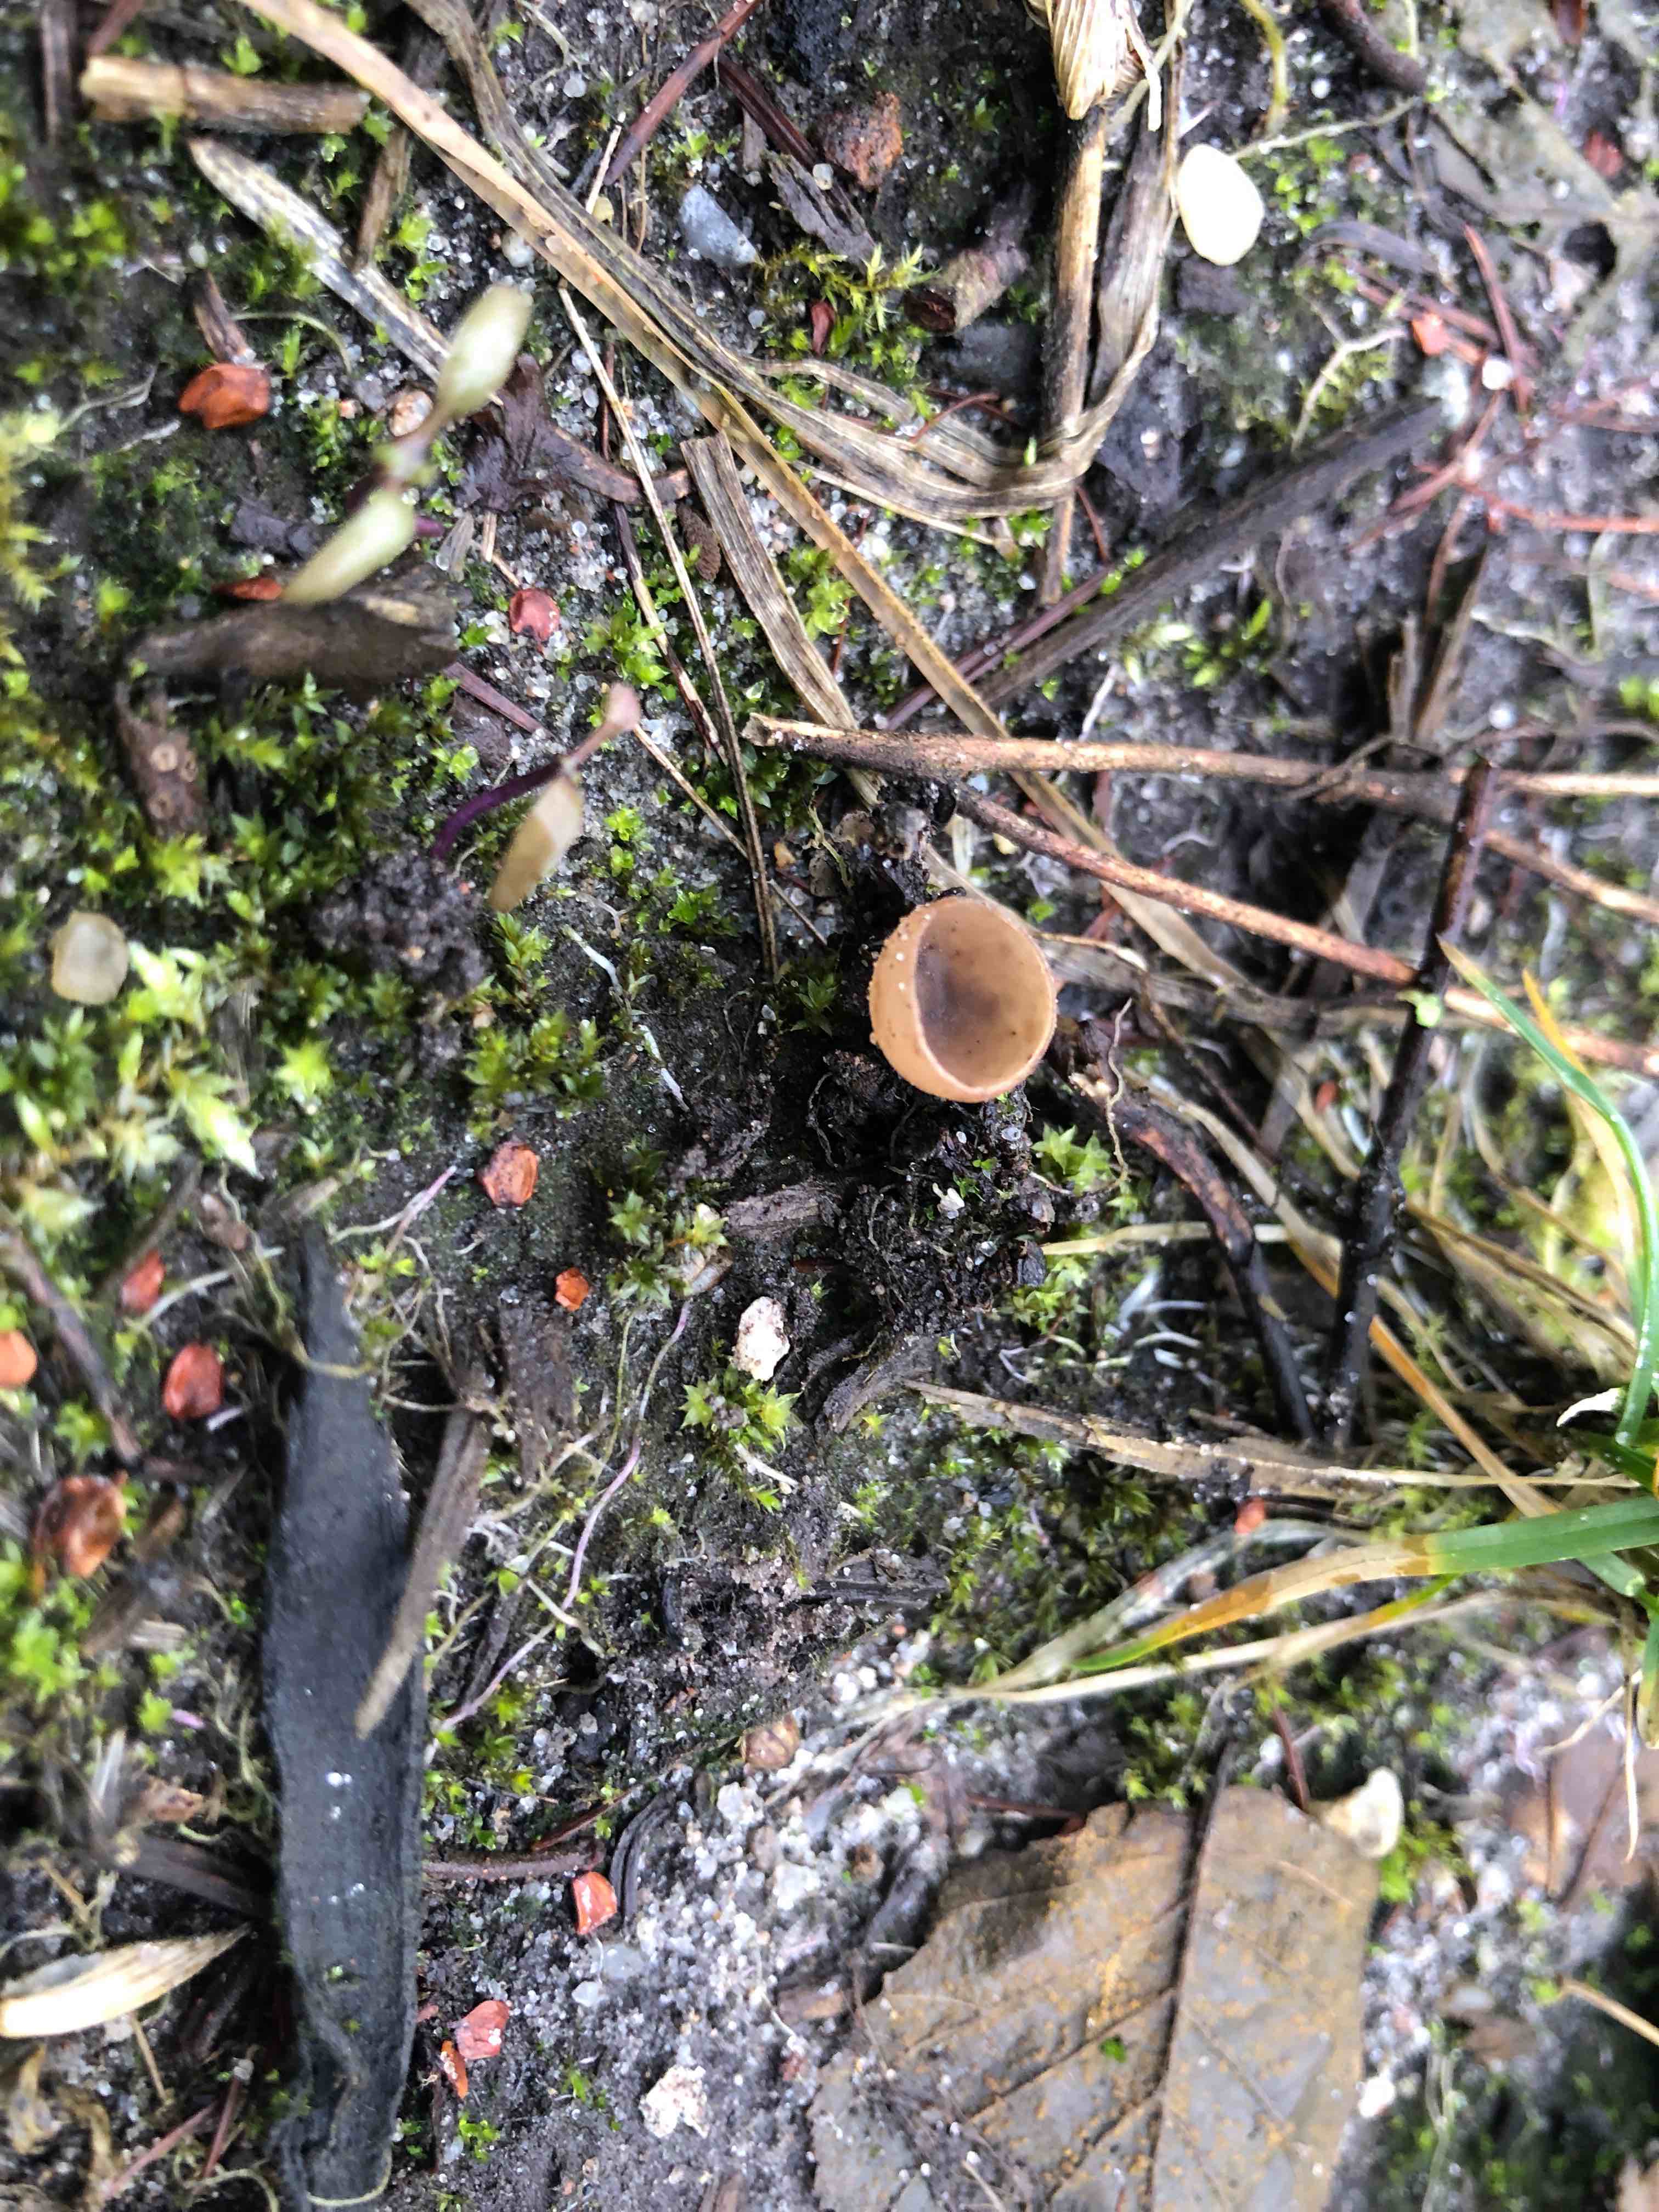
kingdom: Fungi
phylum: Ascomycota
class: Leotiomycetes
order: Helotiales
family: Sclerotiniaceae
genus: Ciboria
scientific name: Ciboria amentacea
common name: ellerakle-knoldskive
